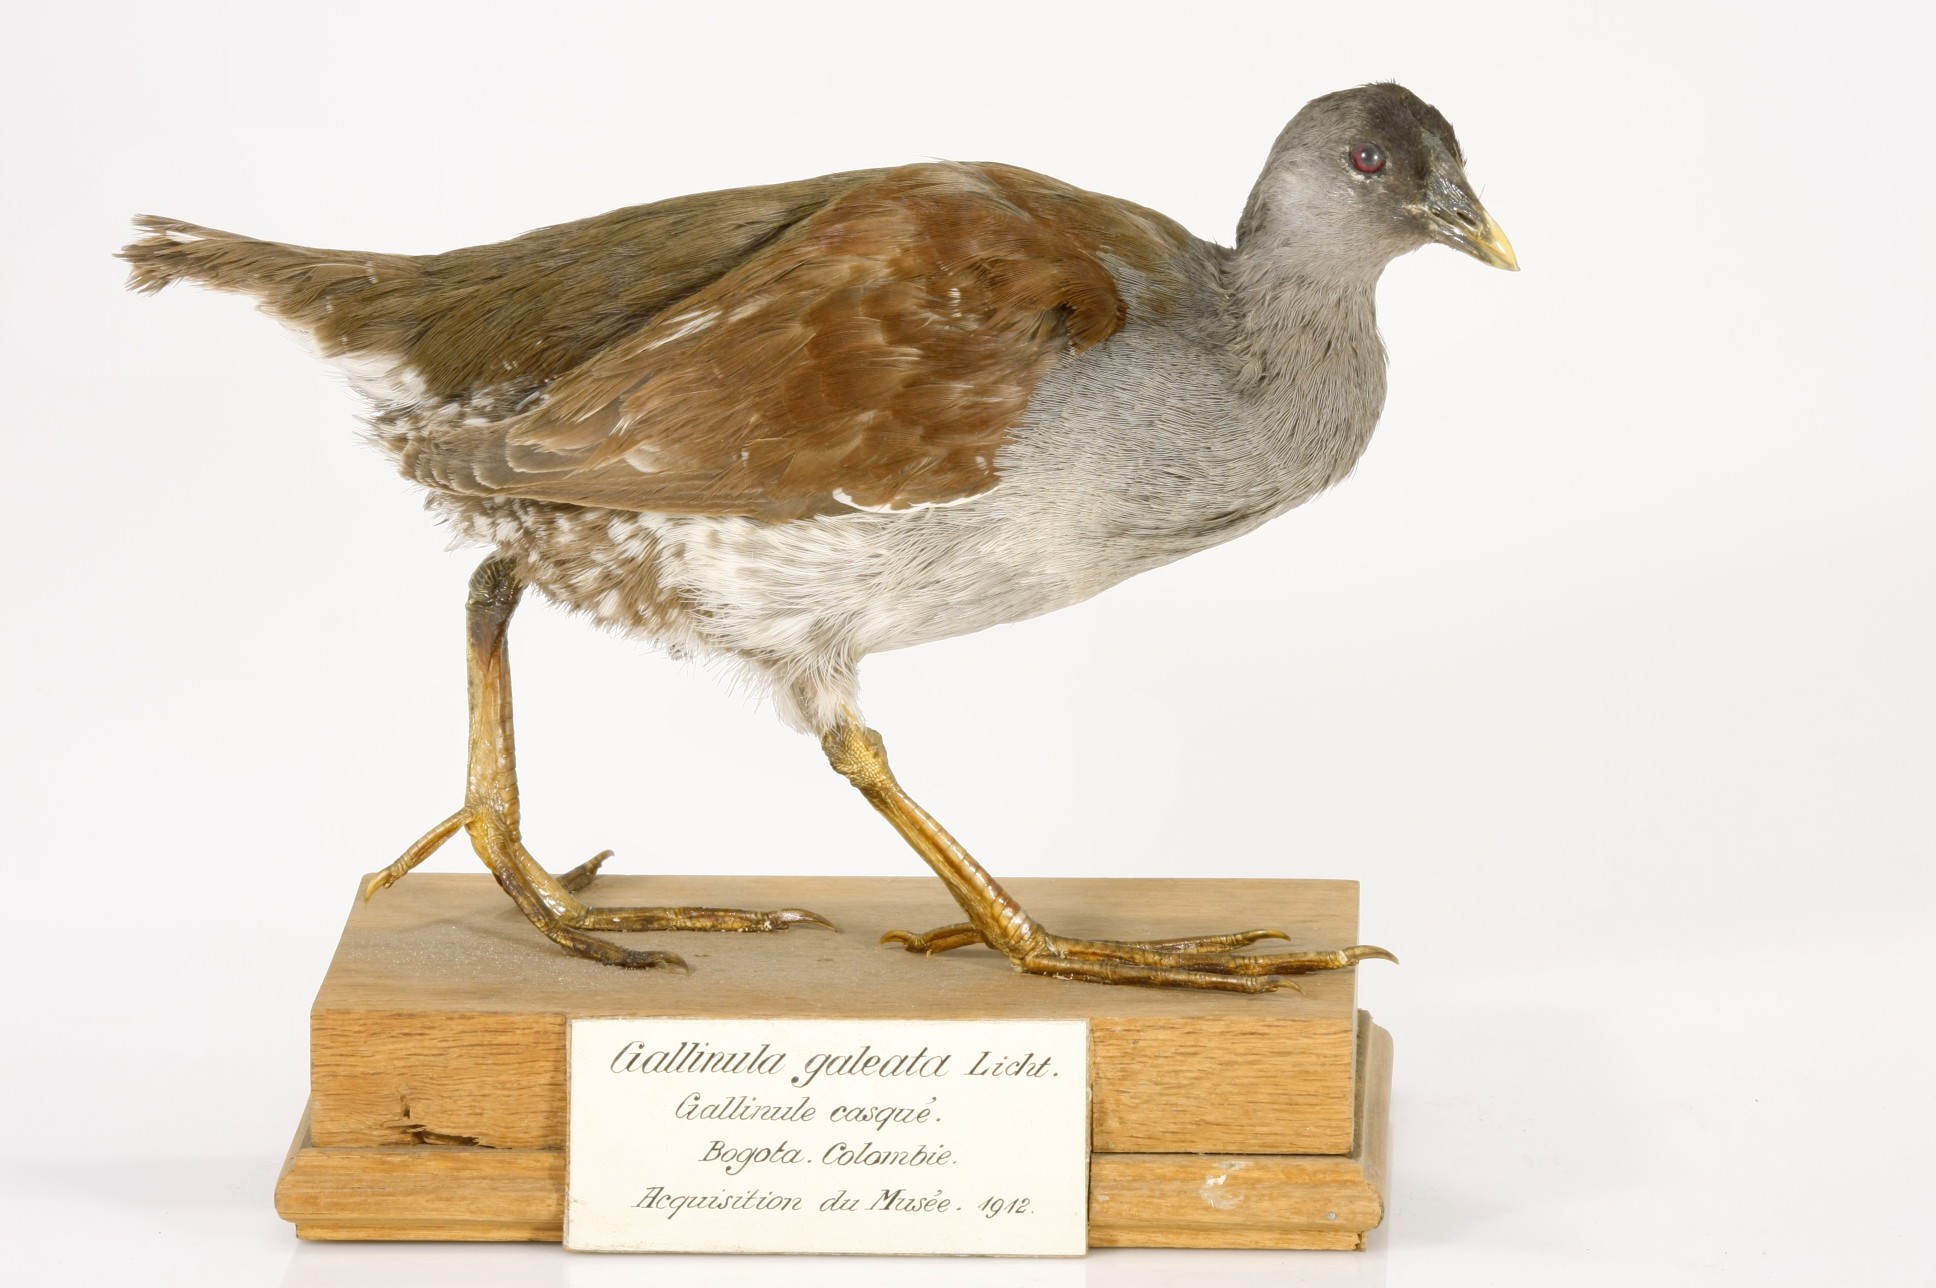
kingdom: Animalia
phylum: Chordata
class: Aves
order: Gruiformes
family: Rallidae
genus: Gallinula
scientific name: Gallinula melanops
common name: Spot-flanked gallinule
